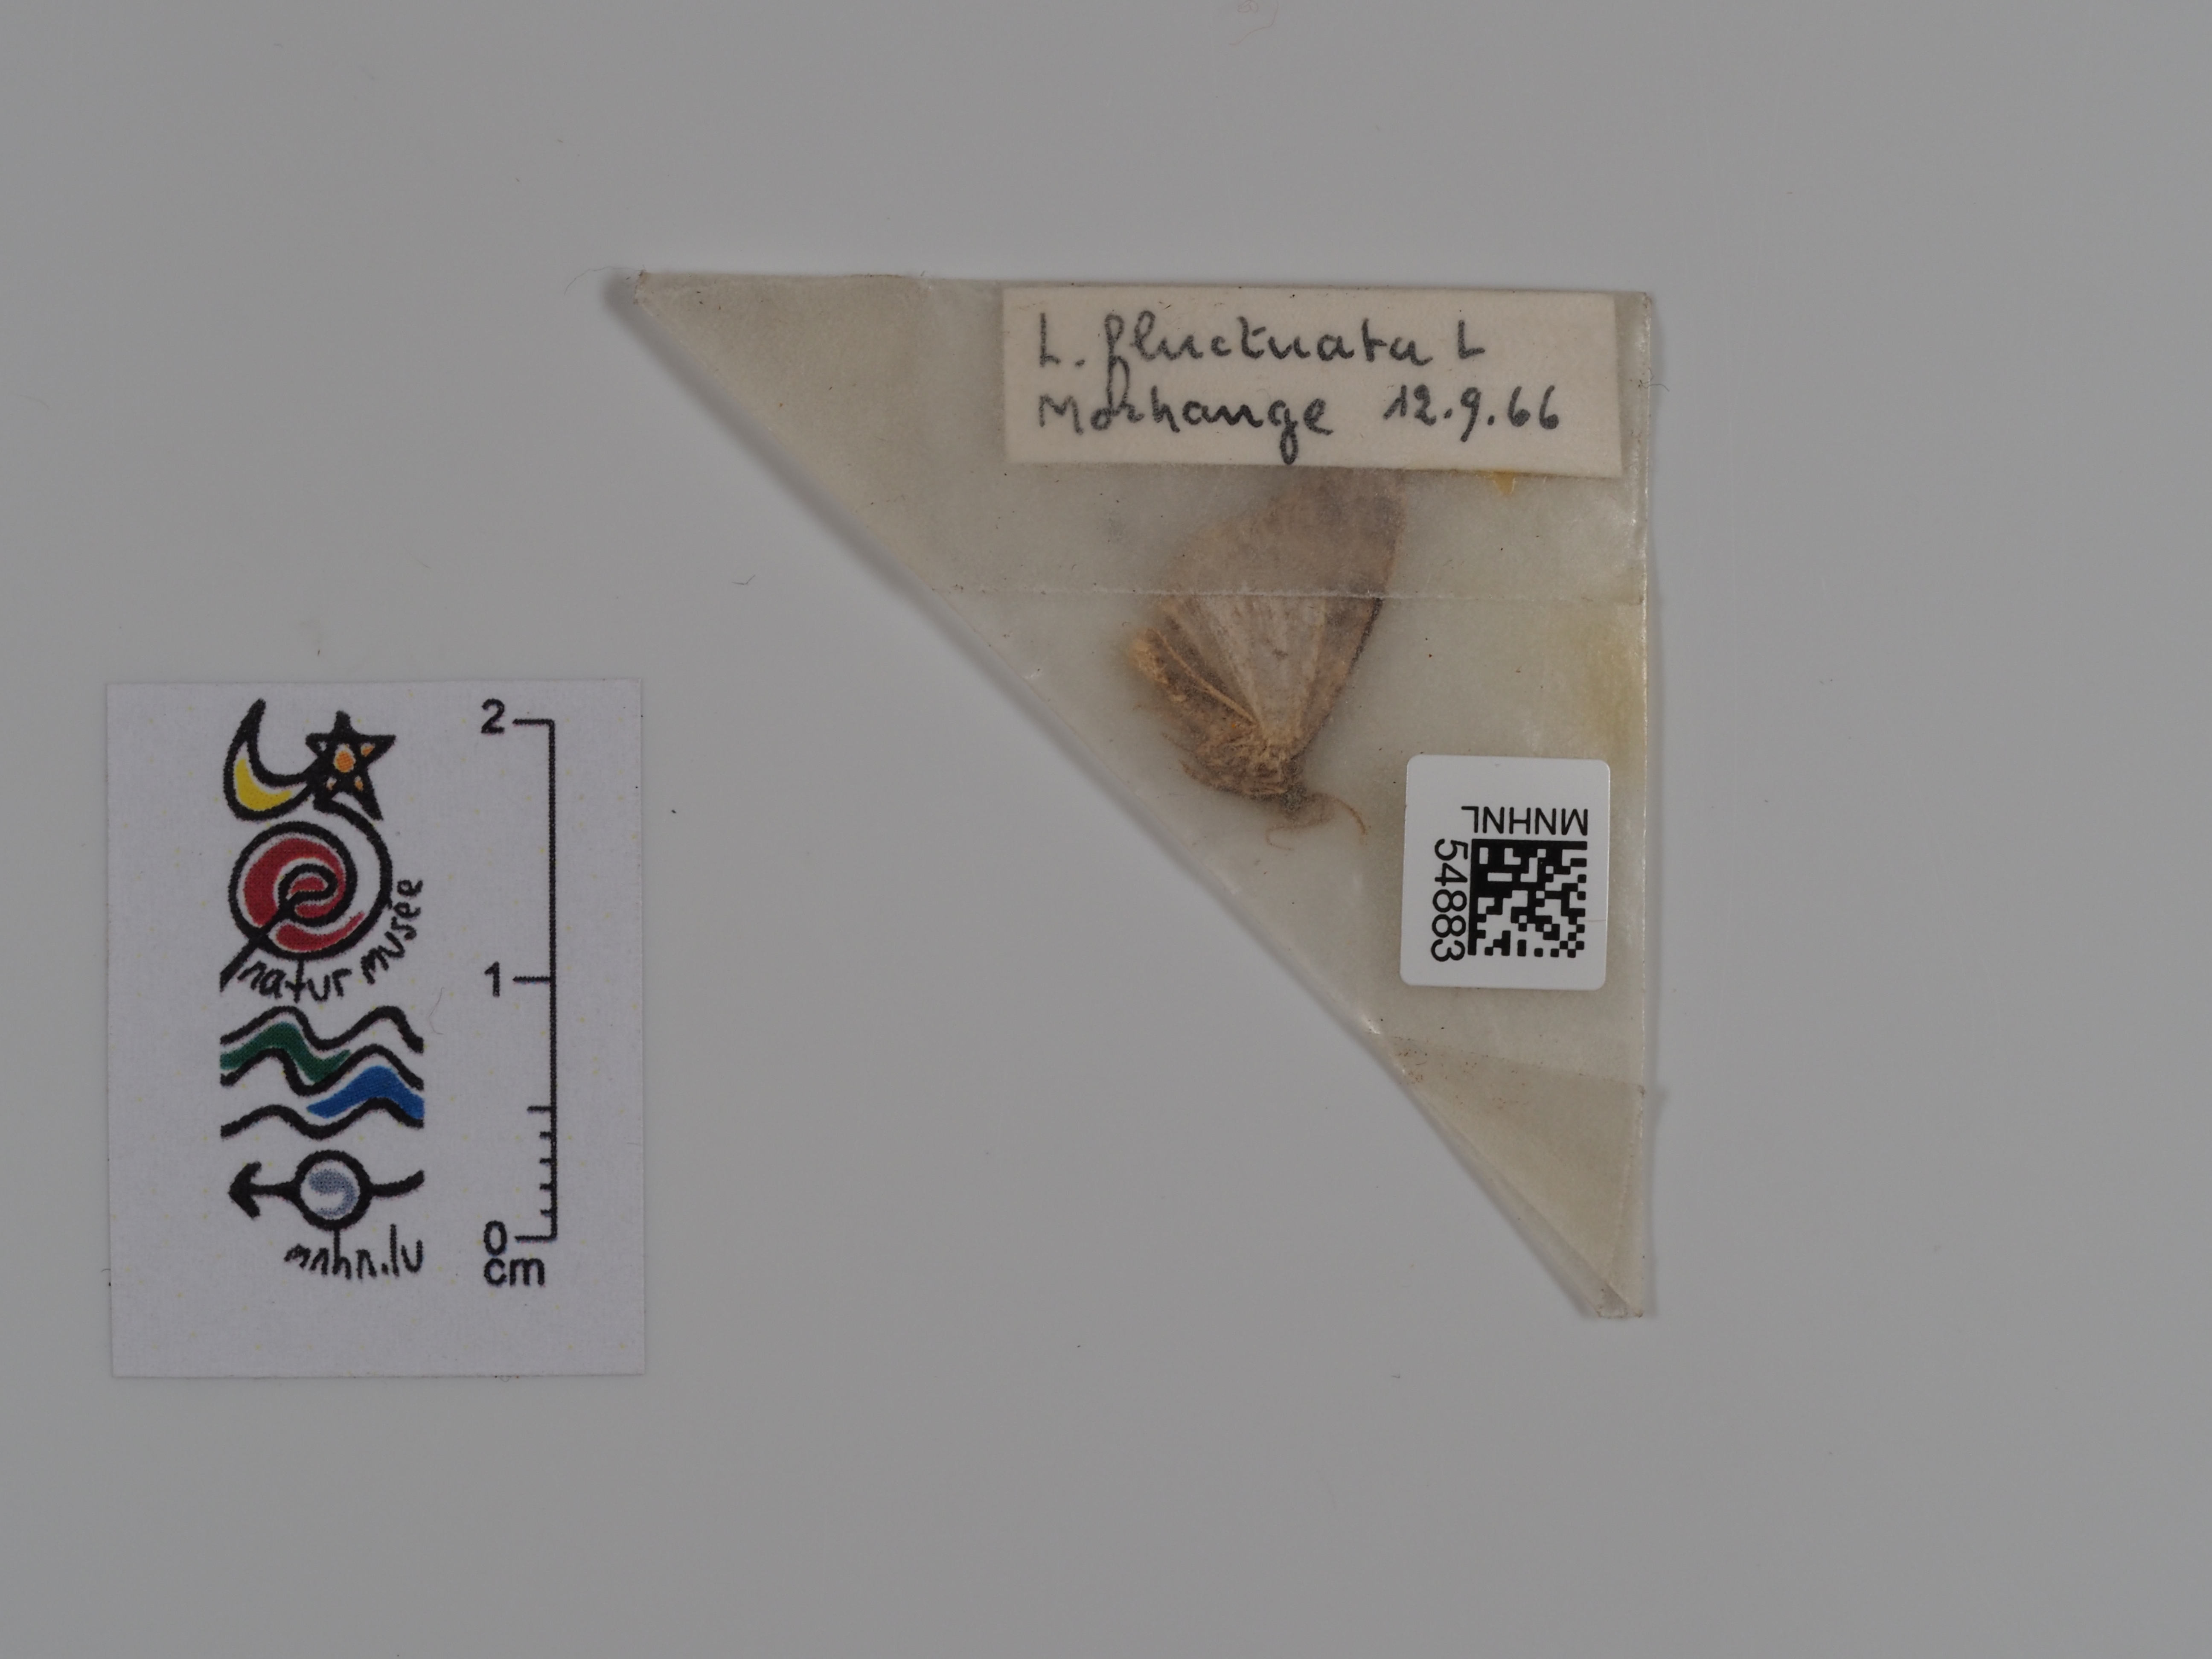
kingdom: Animalia
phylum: Arthropoda
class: Insecta
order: Lepidoptera
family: Geometridae
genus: Xanthorhoe
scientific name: Xanthorhoe fluctuata
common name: Garden carpet
